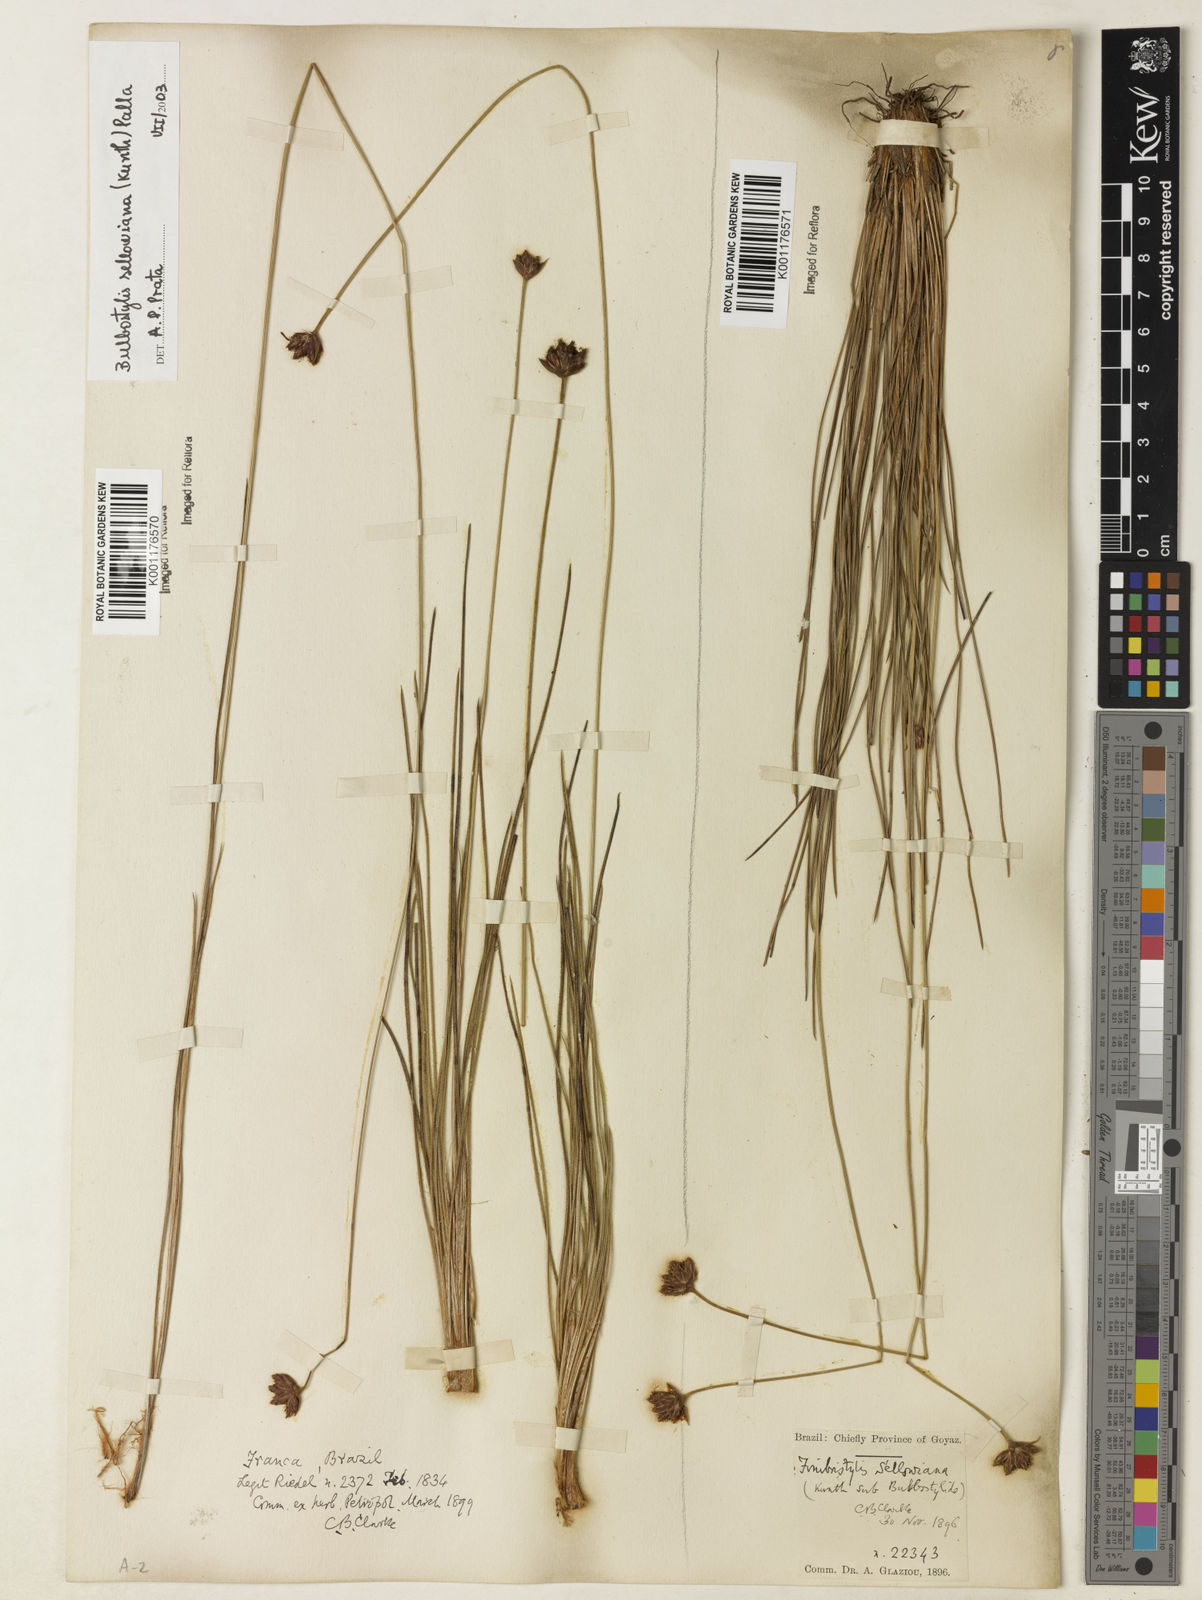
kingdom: Plantae
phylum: Tracheophyta
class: Liliopsida
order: Poales
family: Cyperaceae
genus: Bulbostylis
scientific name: Bulbostylis sellowiana
